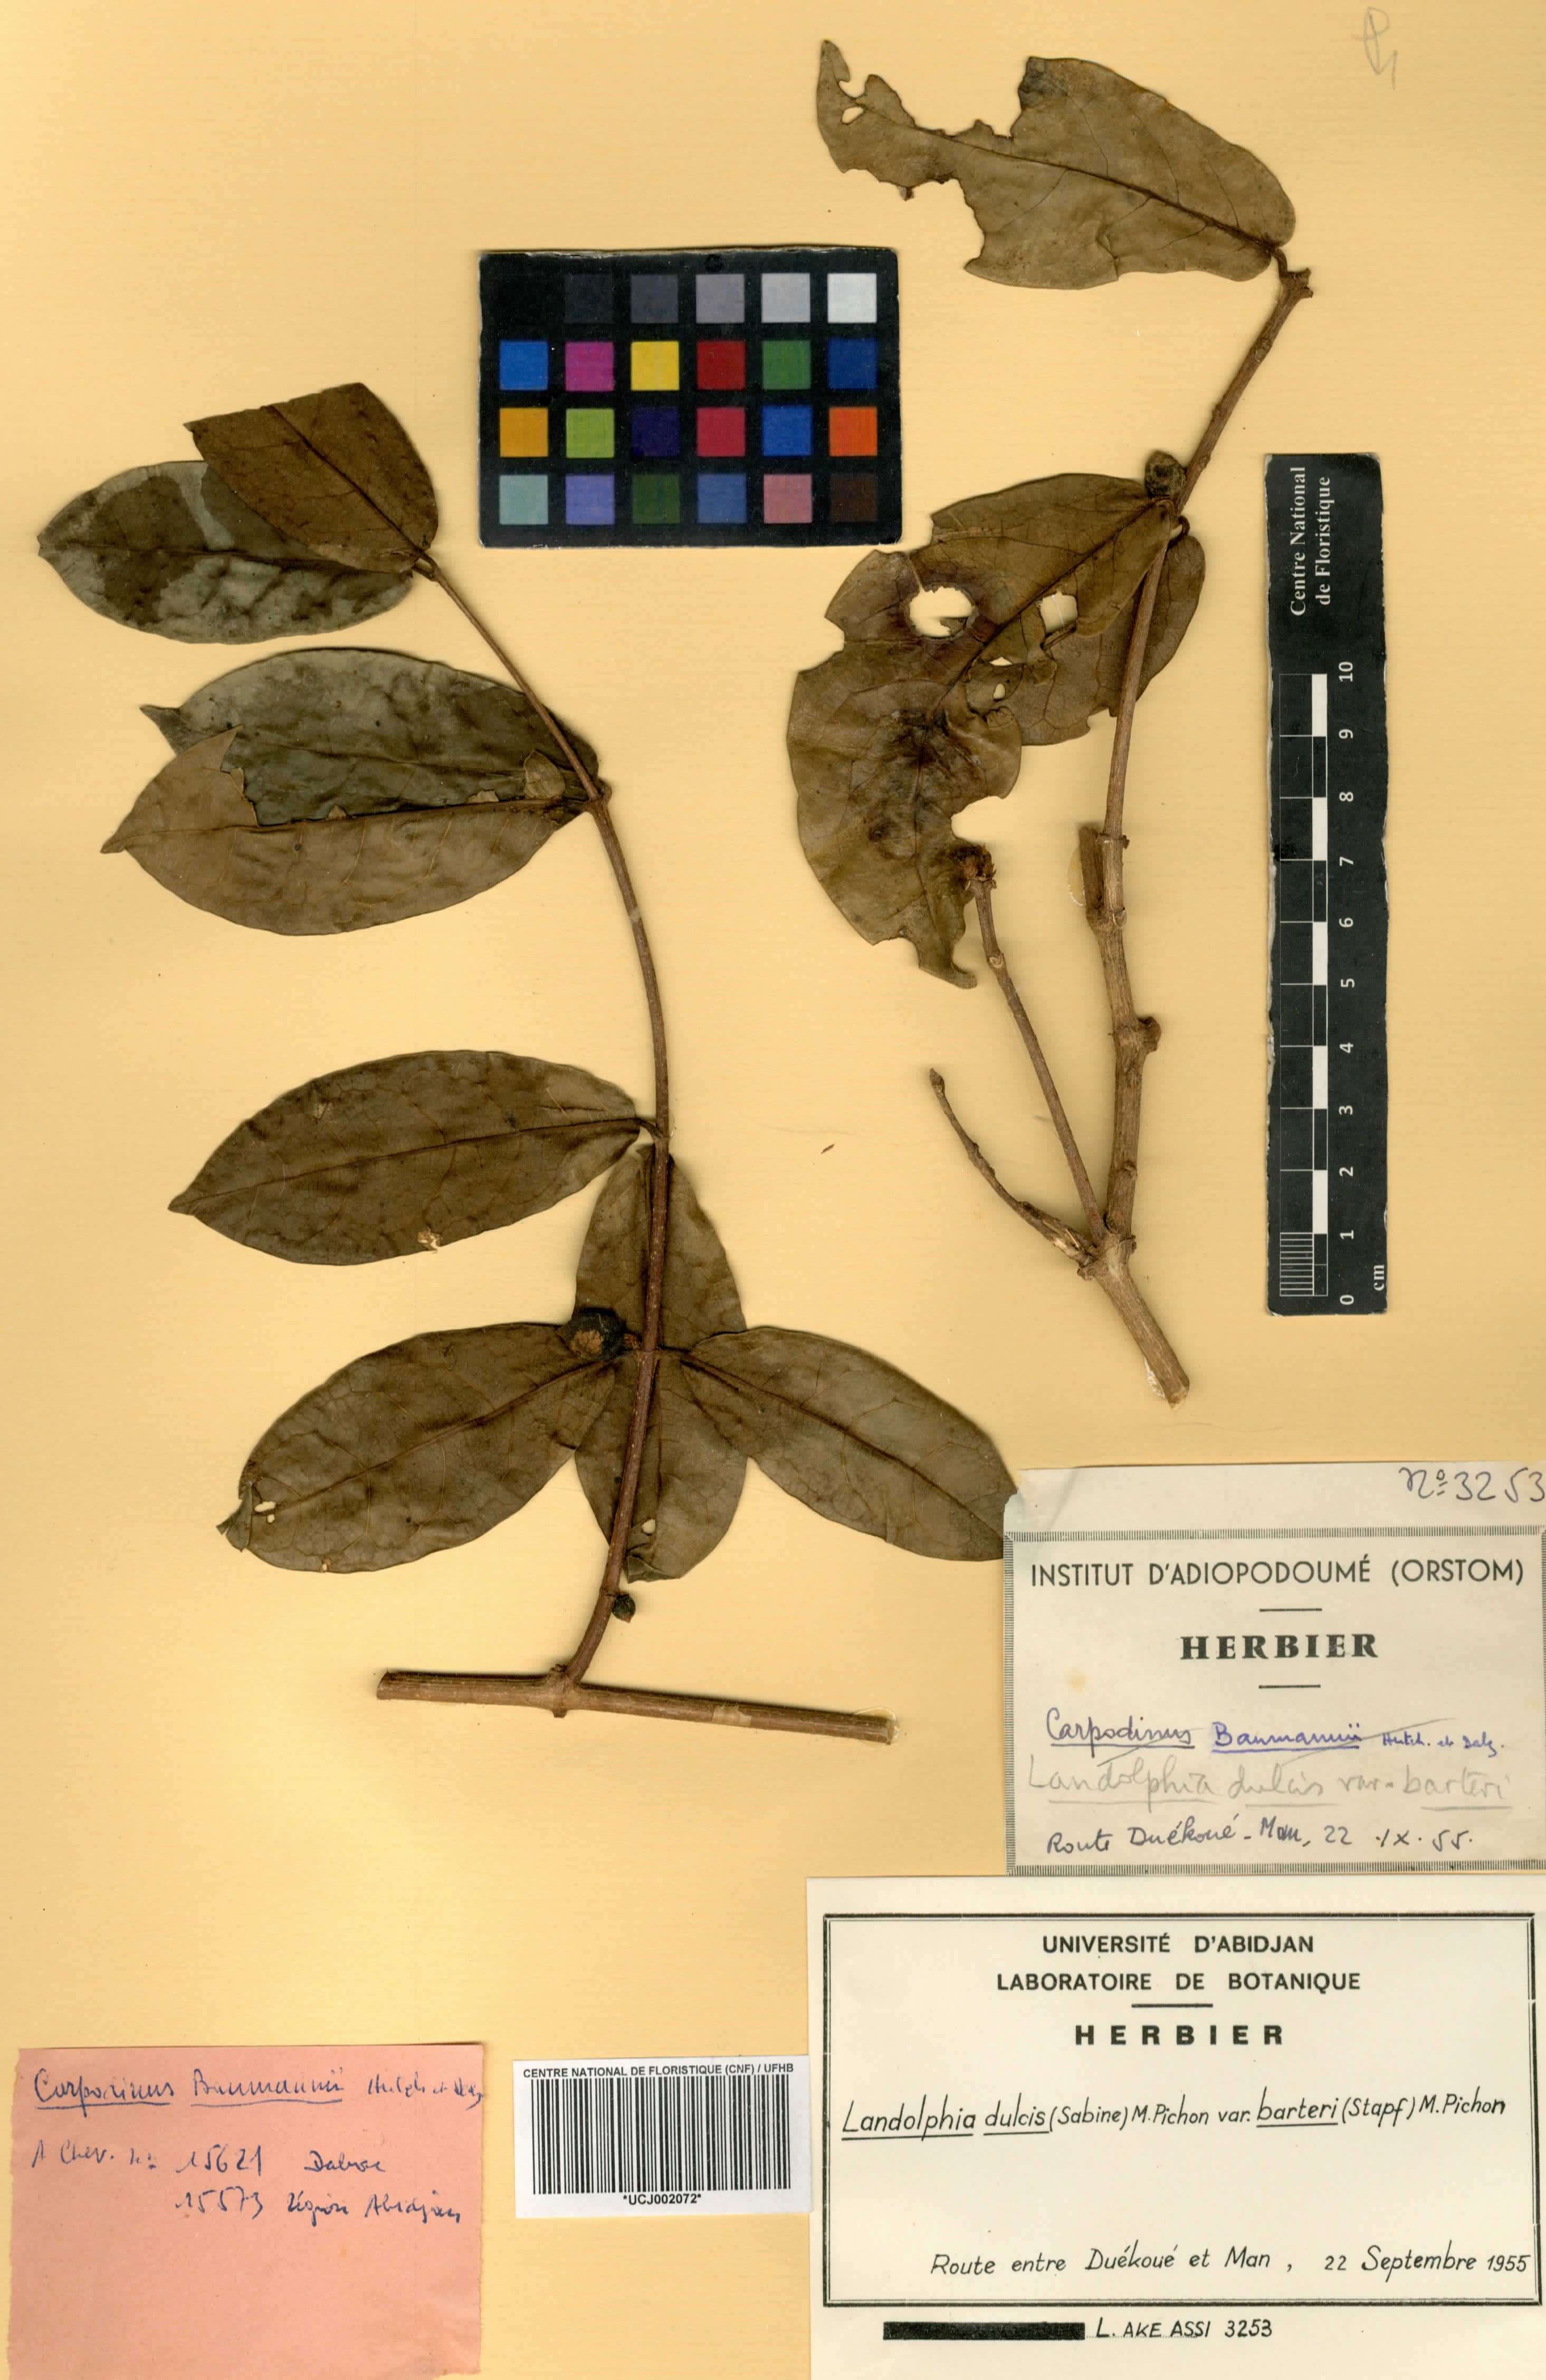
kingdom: Plantae
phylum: Tracheophyta
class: Magnoliopsida
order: Gentianales
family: Apocynaceae
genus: Landolphia
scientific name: Landolphia dulcis
